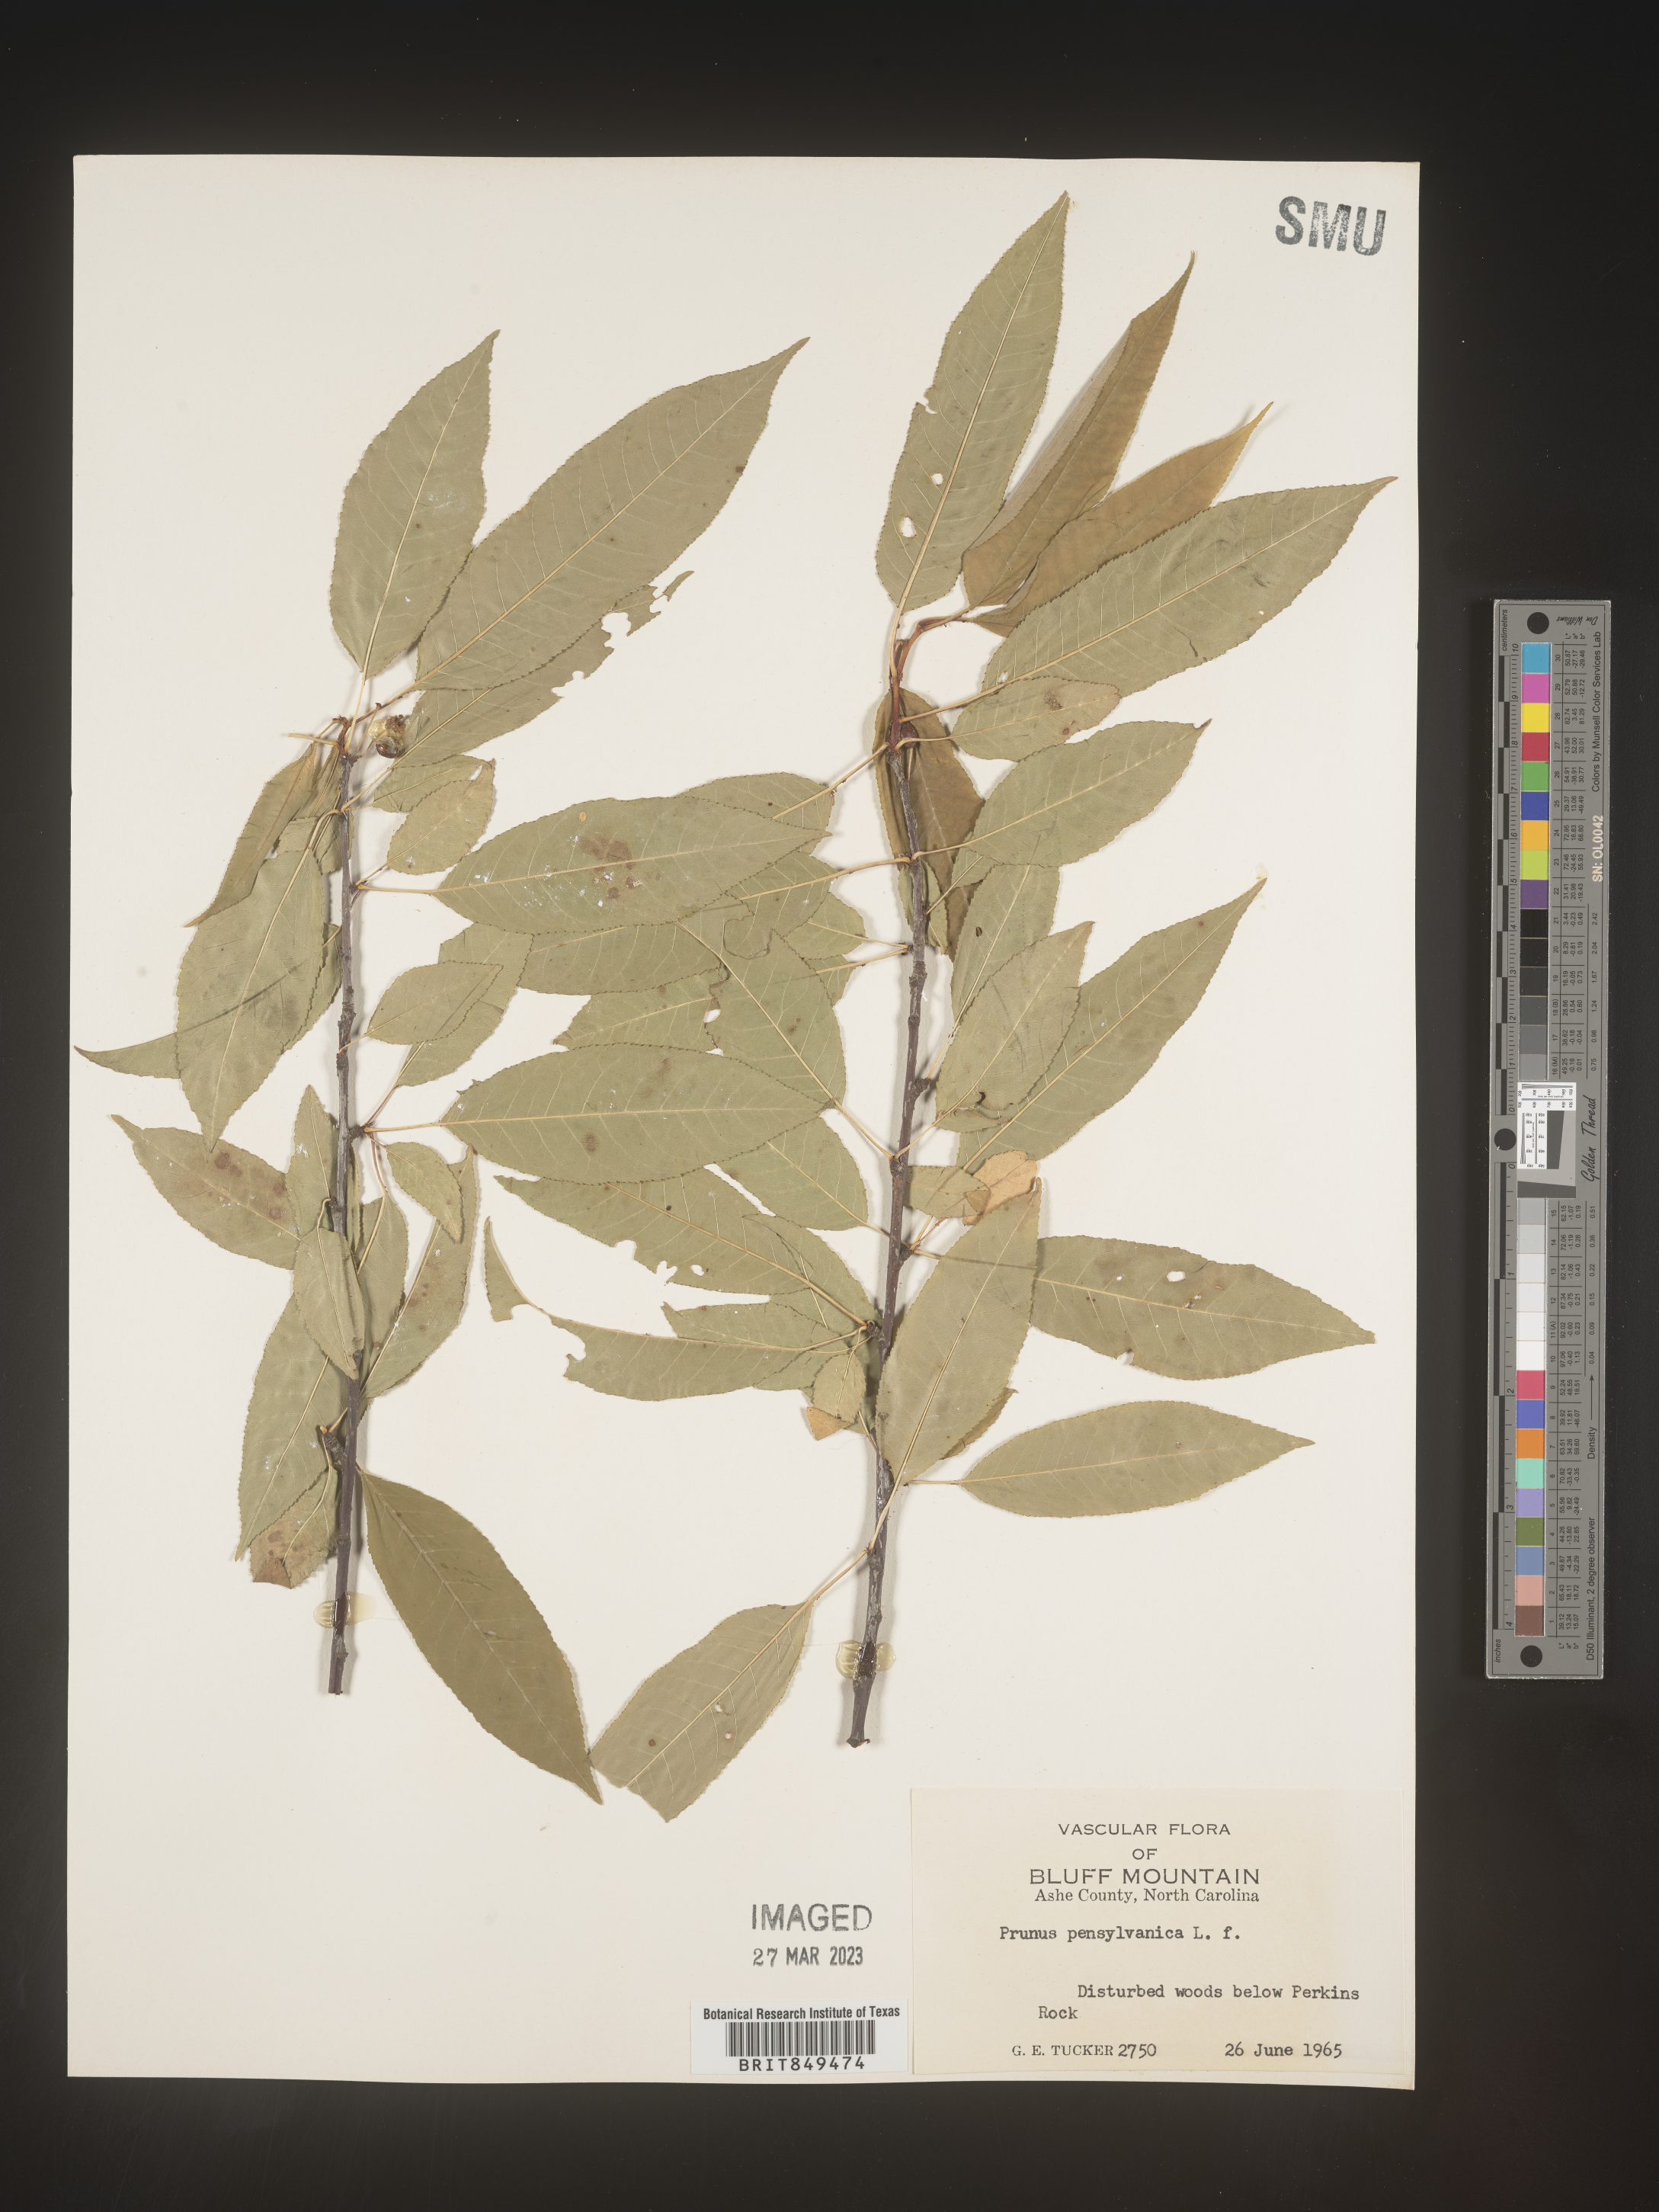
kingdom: Plantae
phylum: Tracheophyta
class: Magnoliopsida
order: Rosales
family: Rosaceae
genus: Prunus
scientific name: Prunus pensylvanica
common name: Pin cherry
